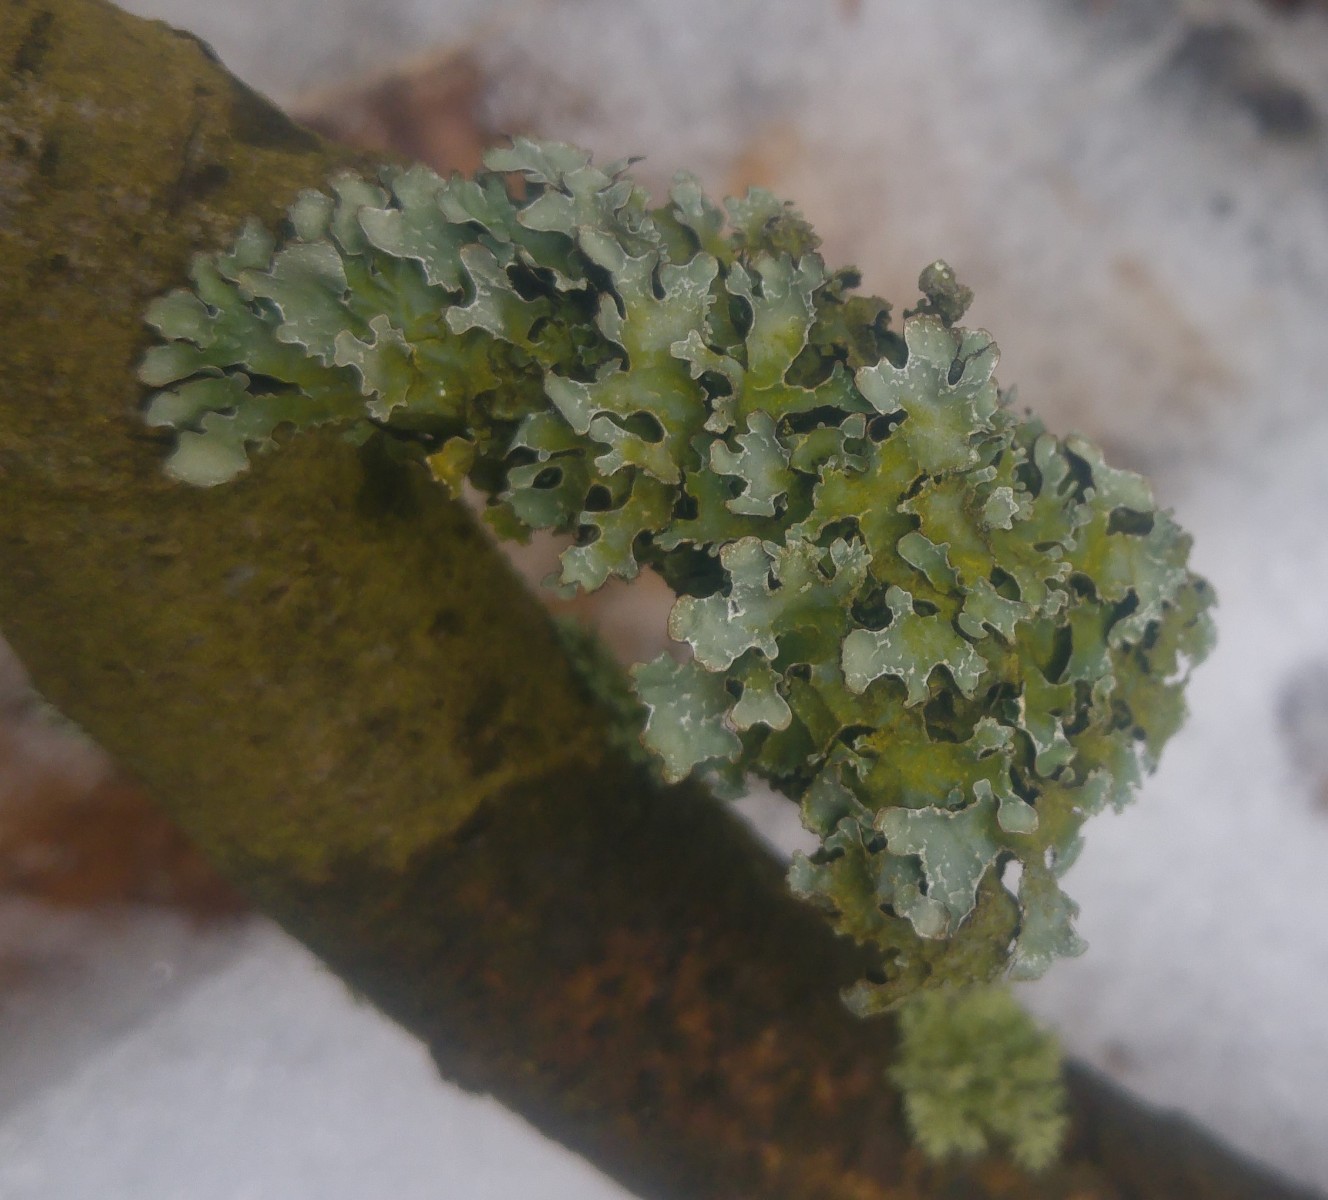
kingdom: Fungi
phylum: Ascomycota
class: Lecanoromycetes
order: Lecanorales
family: Parmeliaceae
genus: Parmelia
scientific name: Parmelia sulcata
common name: rynket skållav
